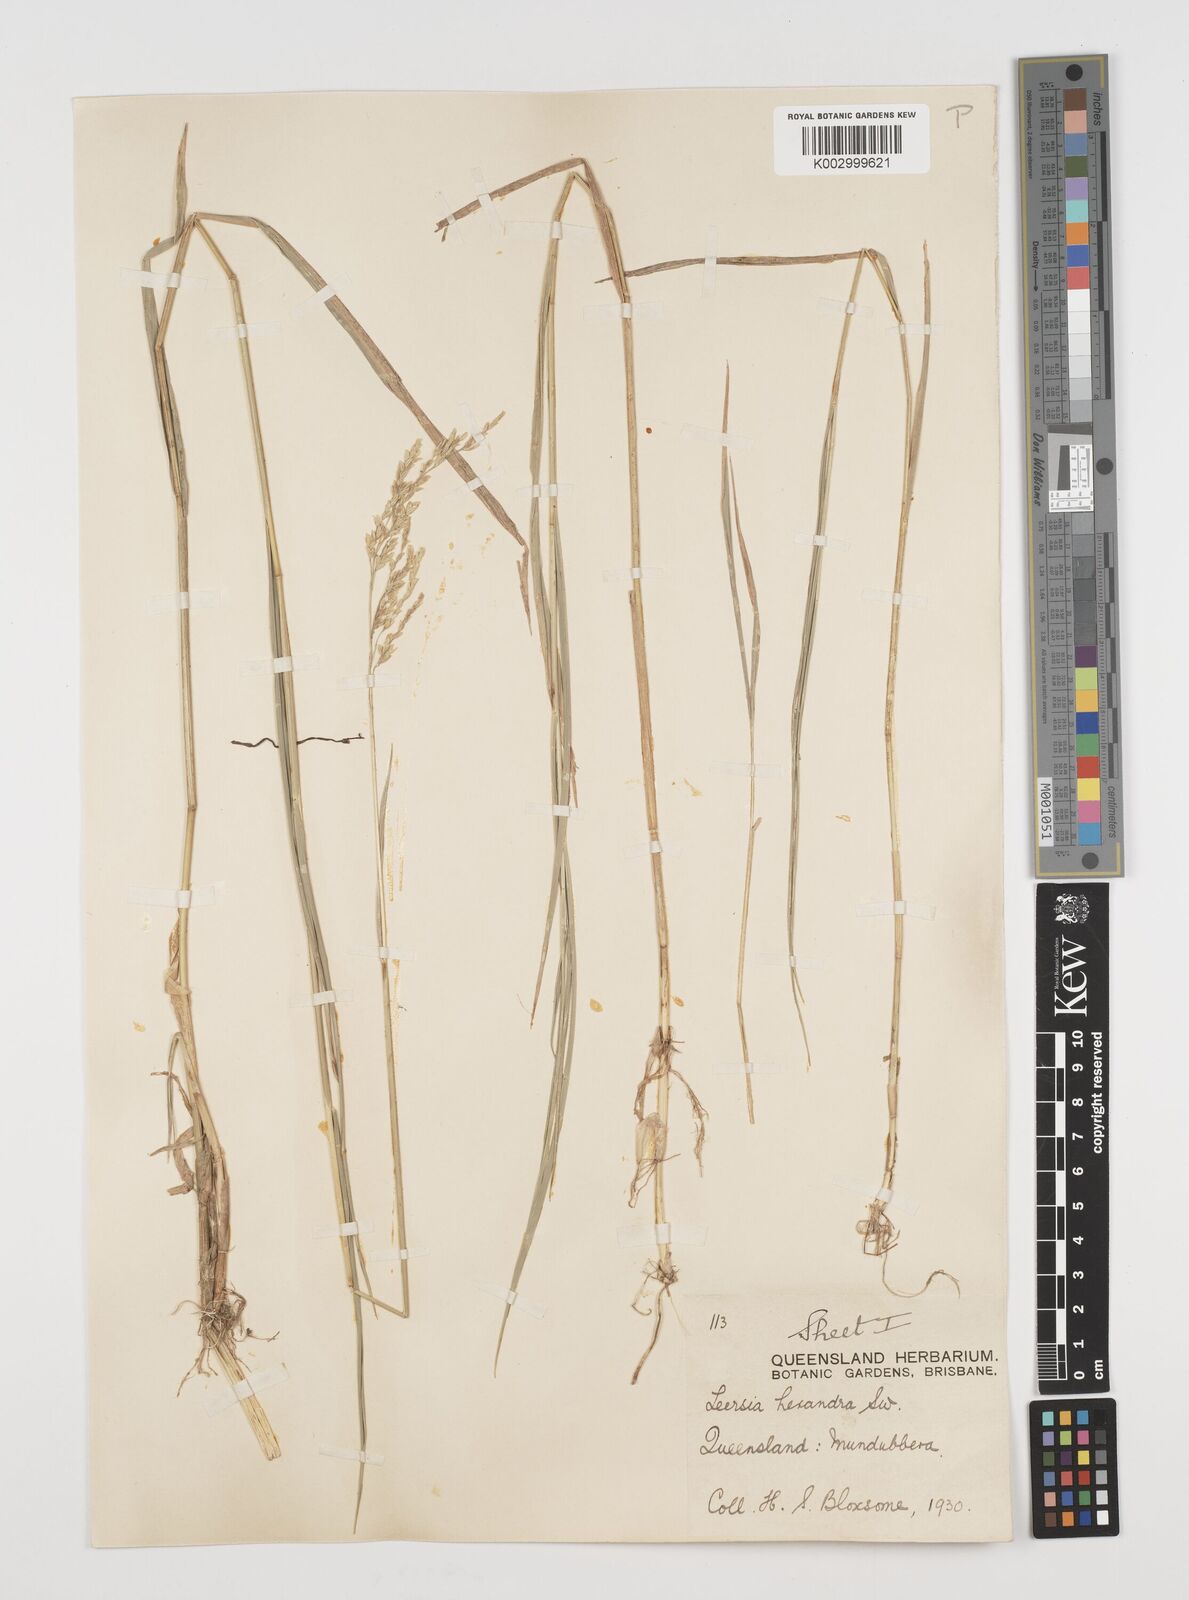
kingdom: Plantae
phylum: Tracheophyta
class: Liliopsida
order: Poales
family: Poaceae
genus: Leersia
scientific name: Leersia hexandra
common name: Southern cut grass
